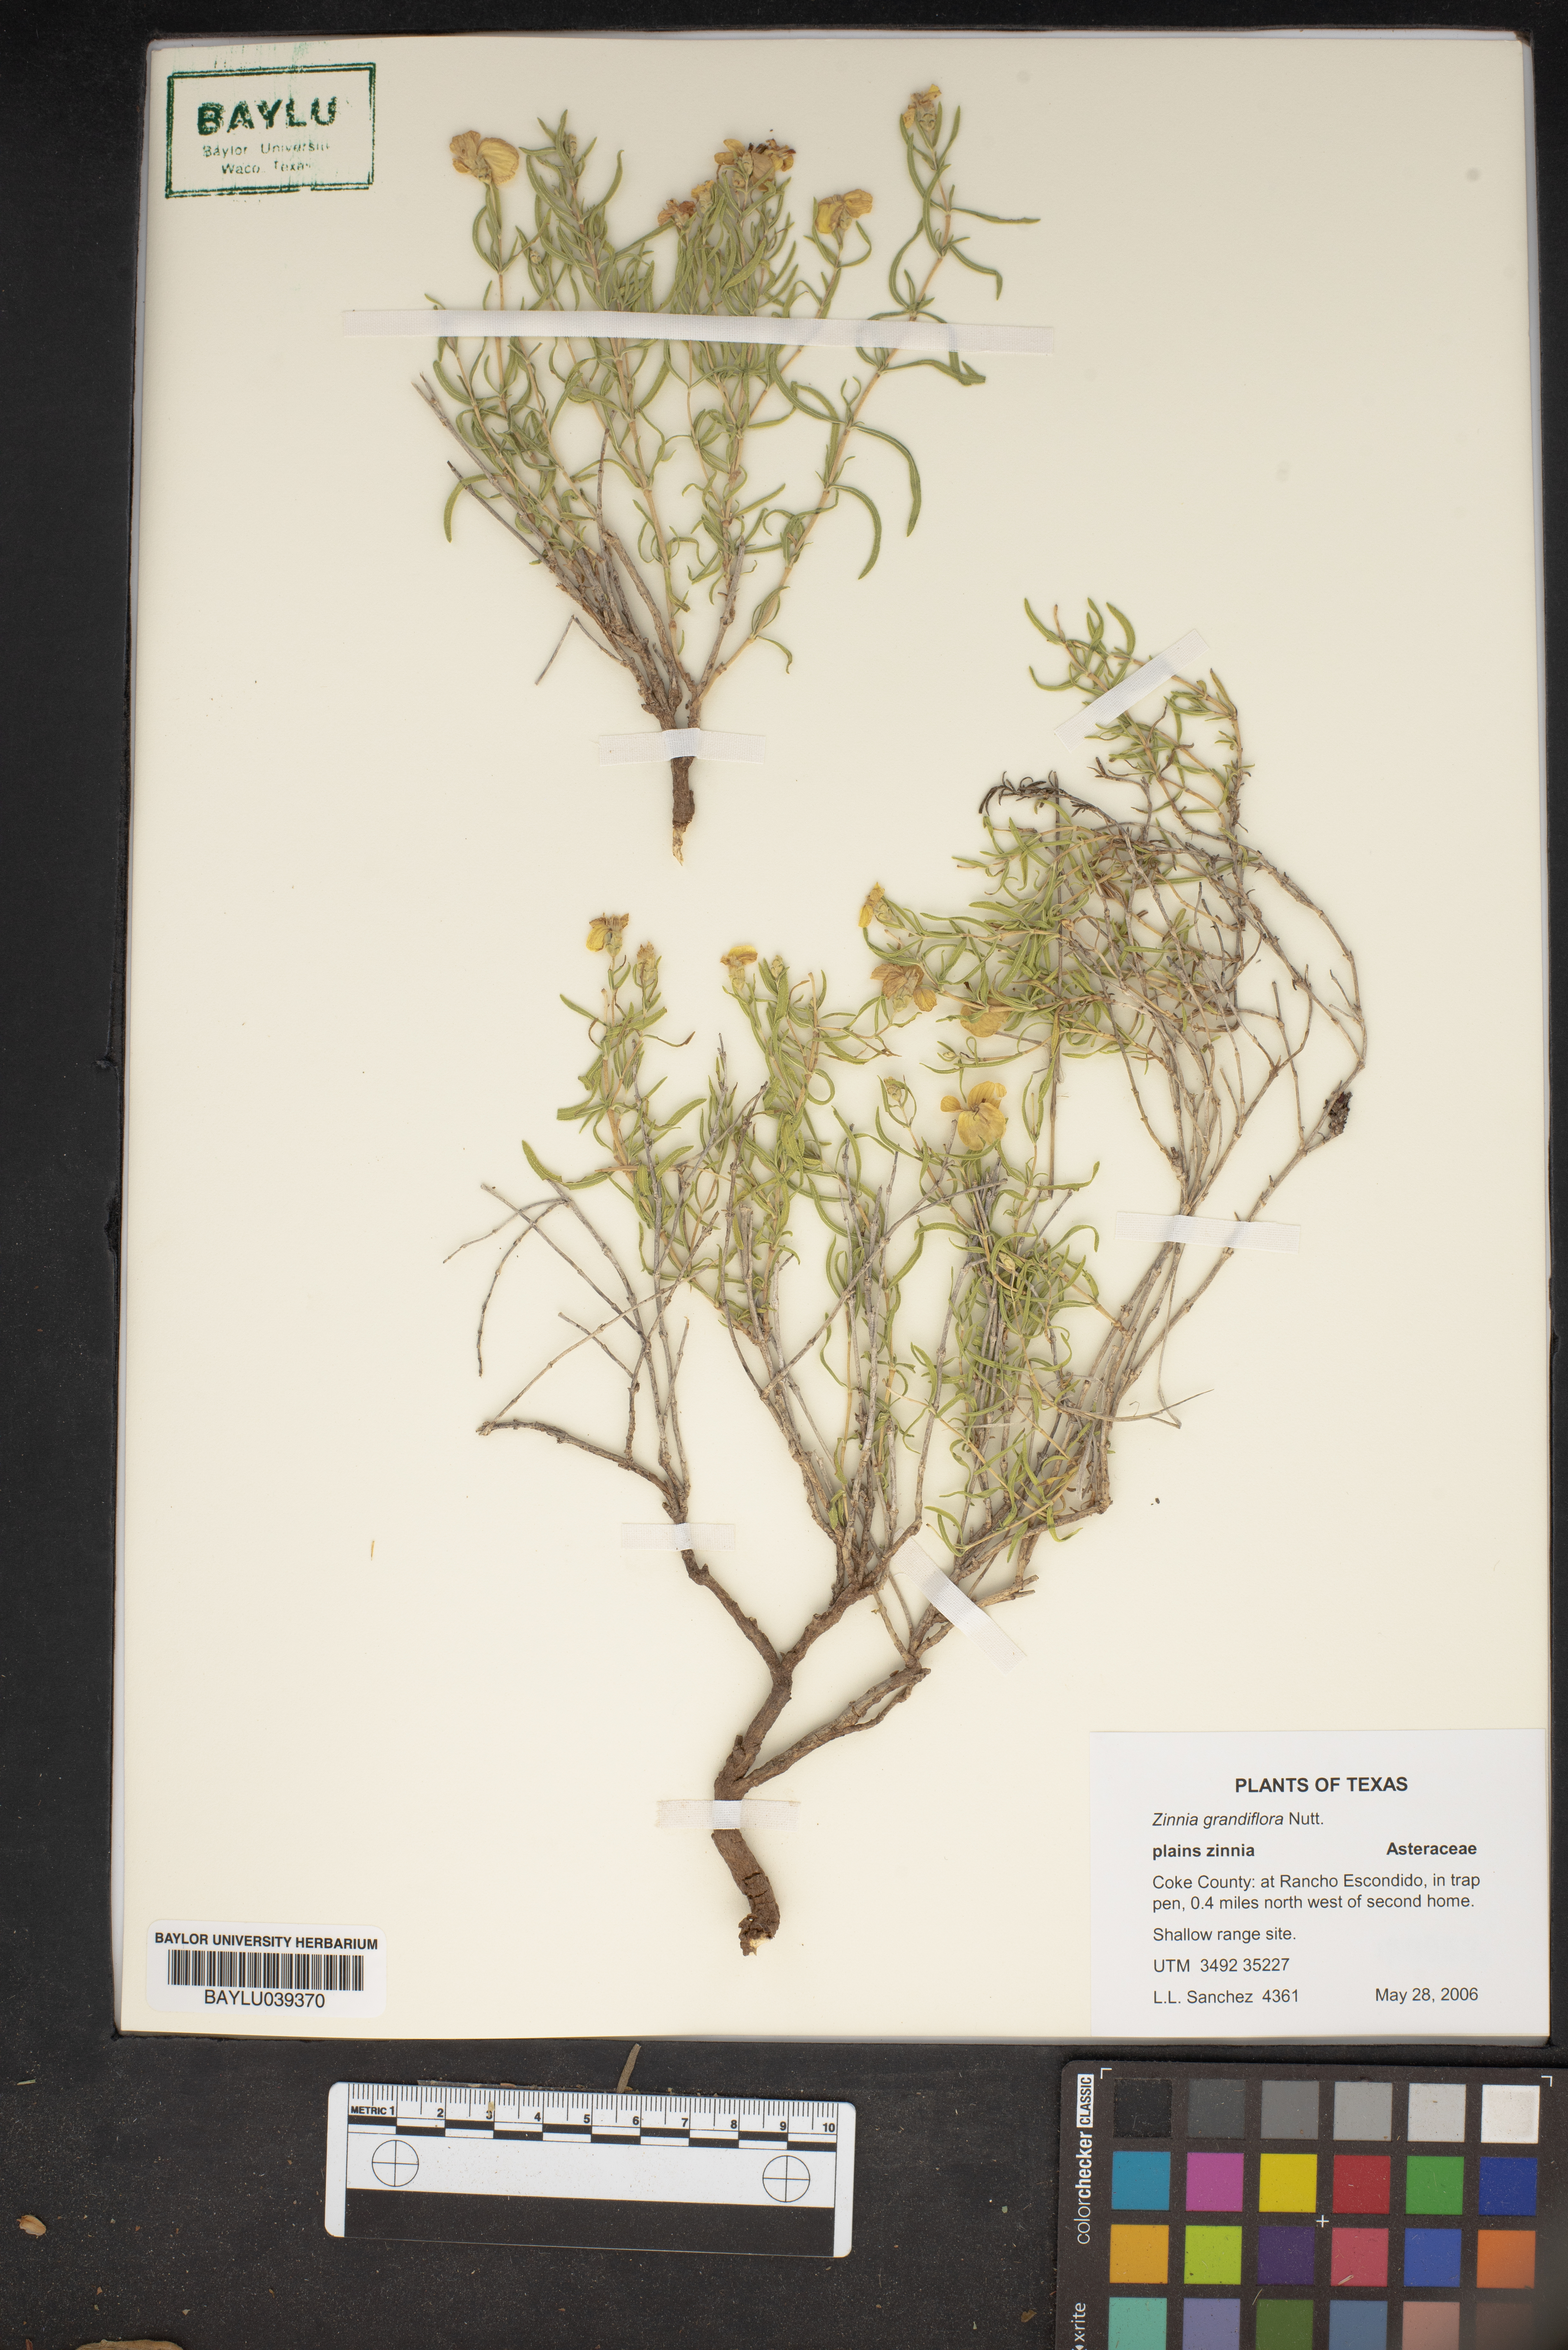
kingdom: Plantae
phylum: Tracheophyta
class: Magnoliopsida
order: Asterales
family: Asteraceae
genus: Zinnia
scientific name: Zinnia grandiflora
